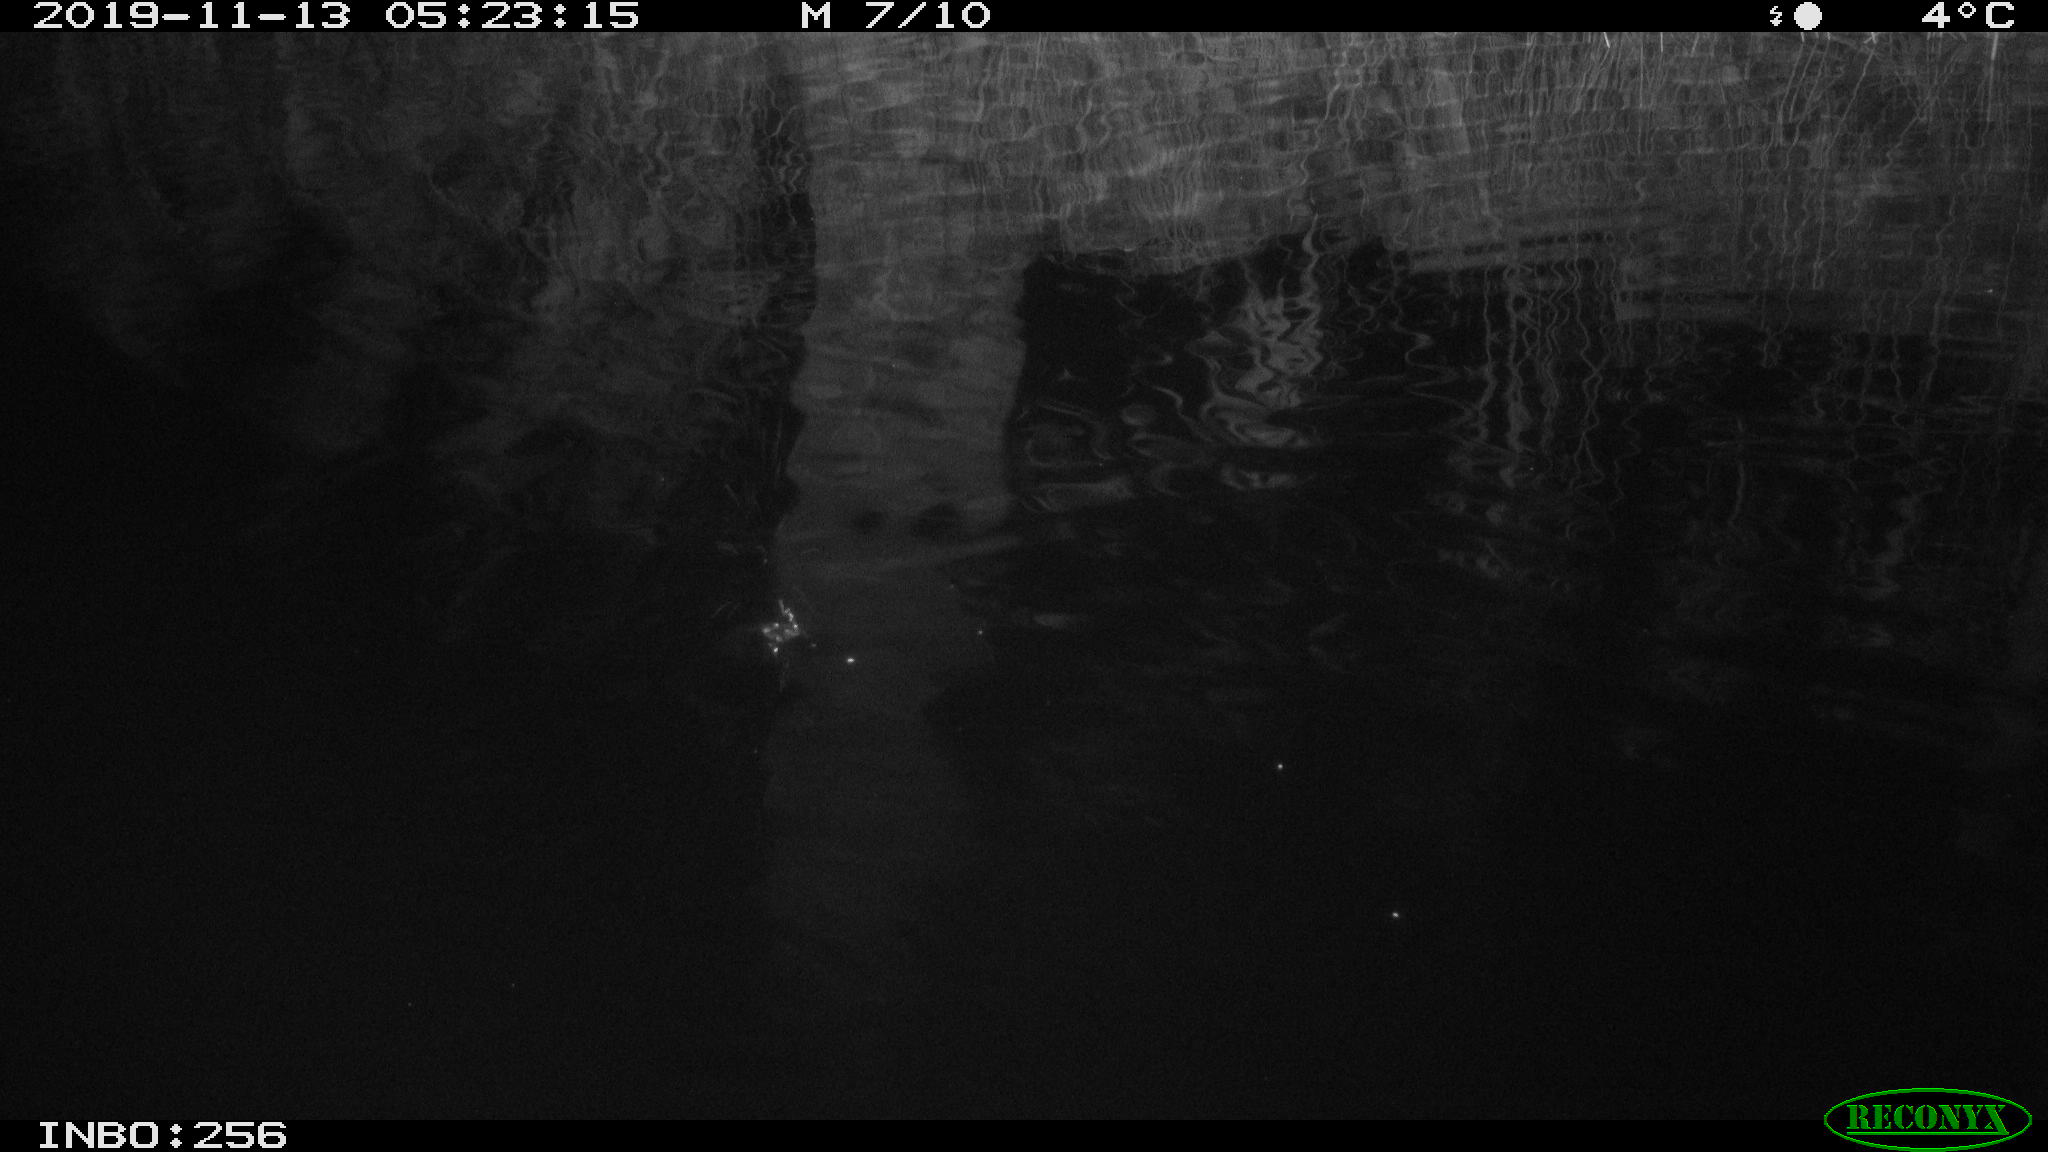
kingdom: Animalia
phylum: Chordata
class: Mammalia
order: Rodentia
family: Muridae
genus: Rattus
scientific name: Rattus norvegicus
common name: Brown rat
